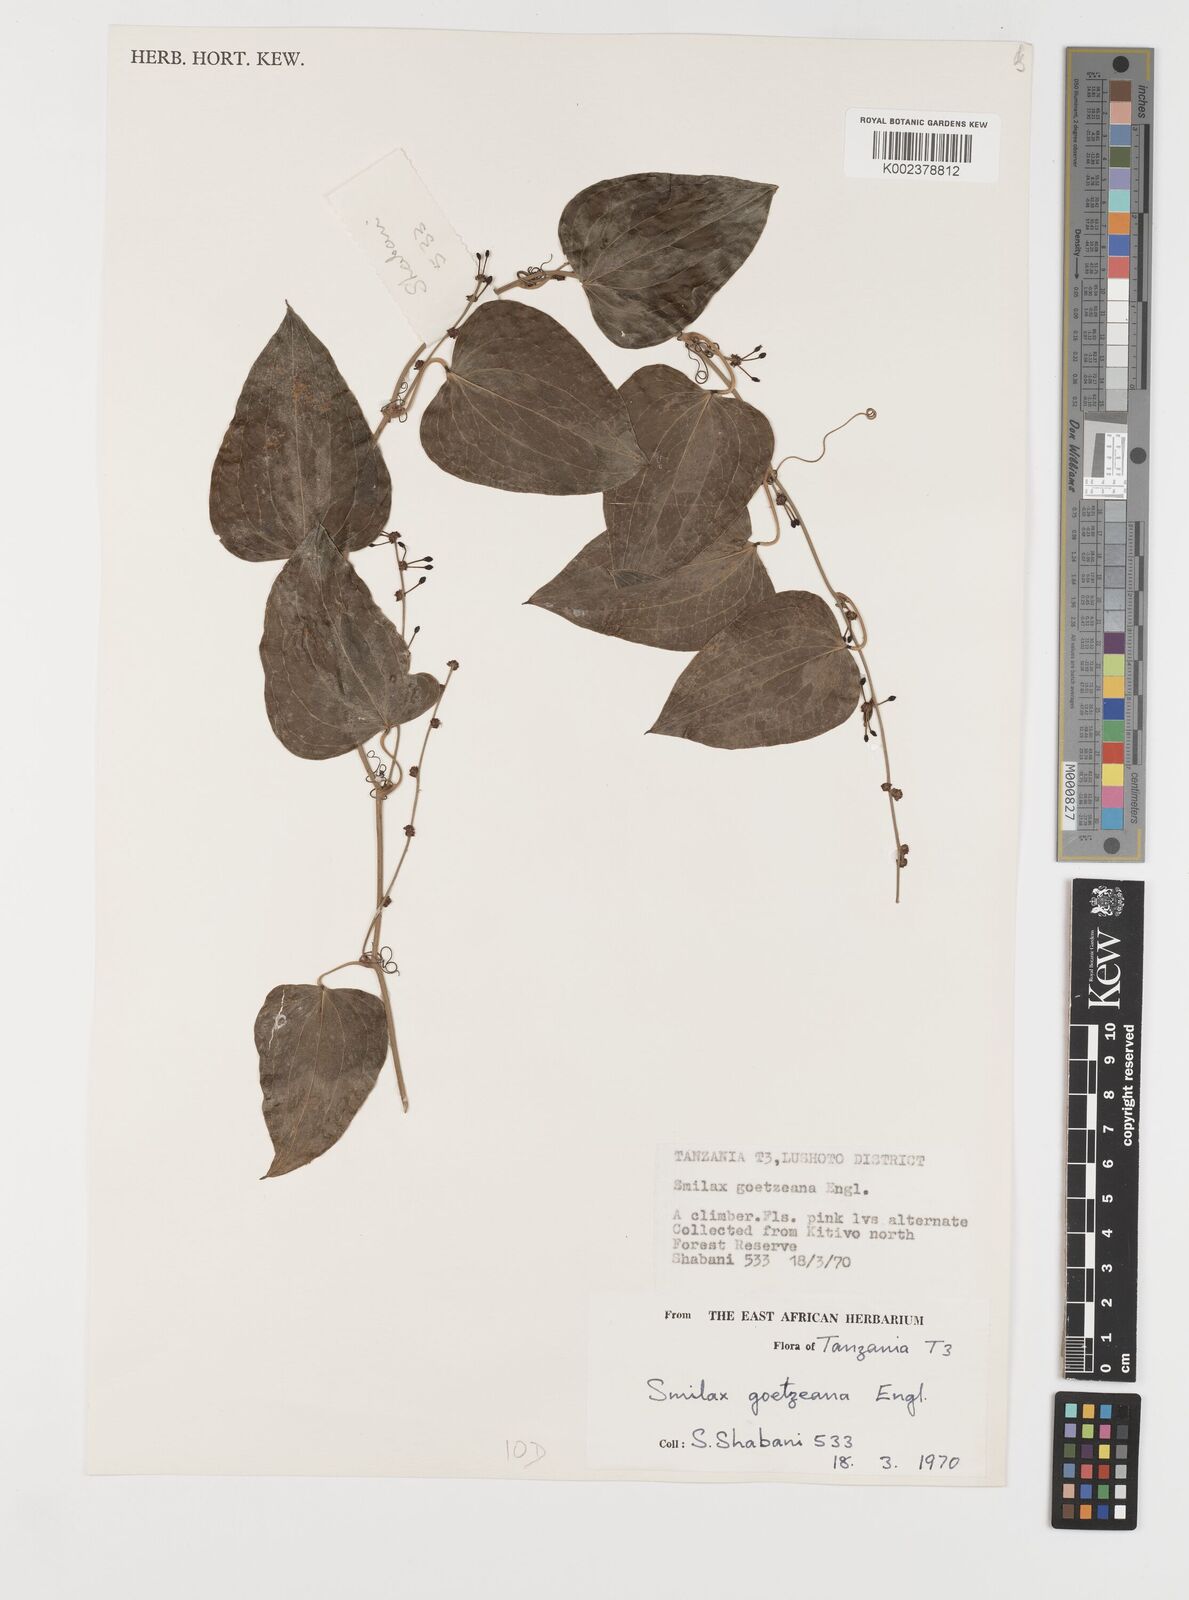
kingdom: Plantae
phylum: Tracheophyta
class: Liliopsida
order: Liliales
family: Smilacaceae
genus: Smilax
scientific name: Smilax aspera
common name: Common smilax
